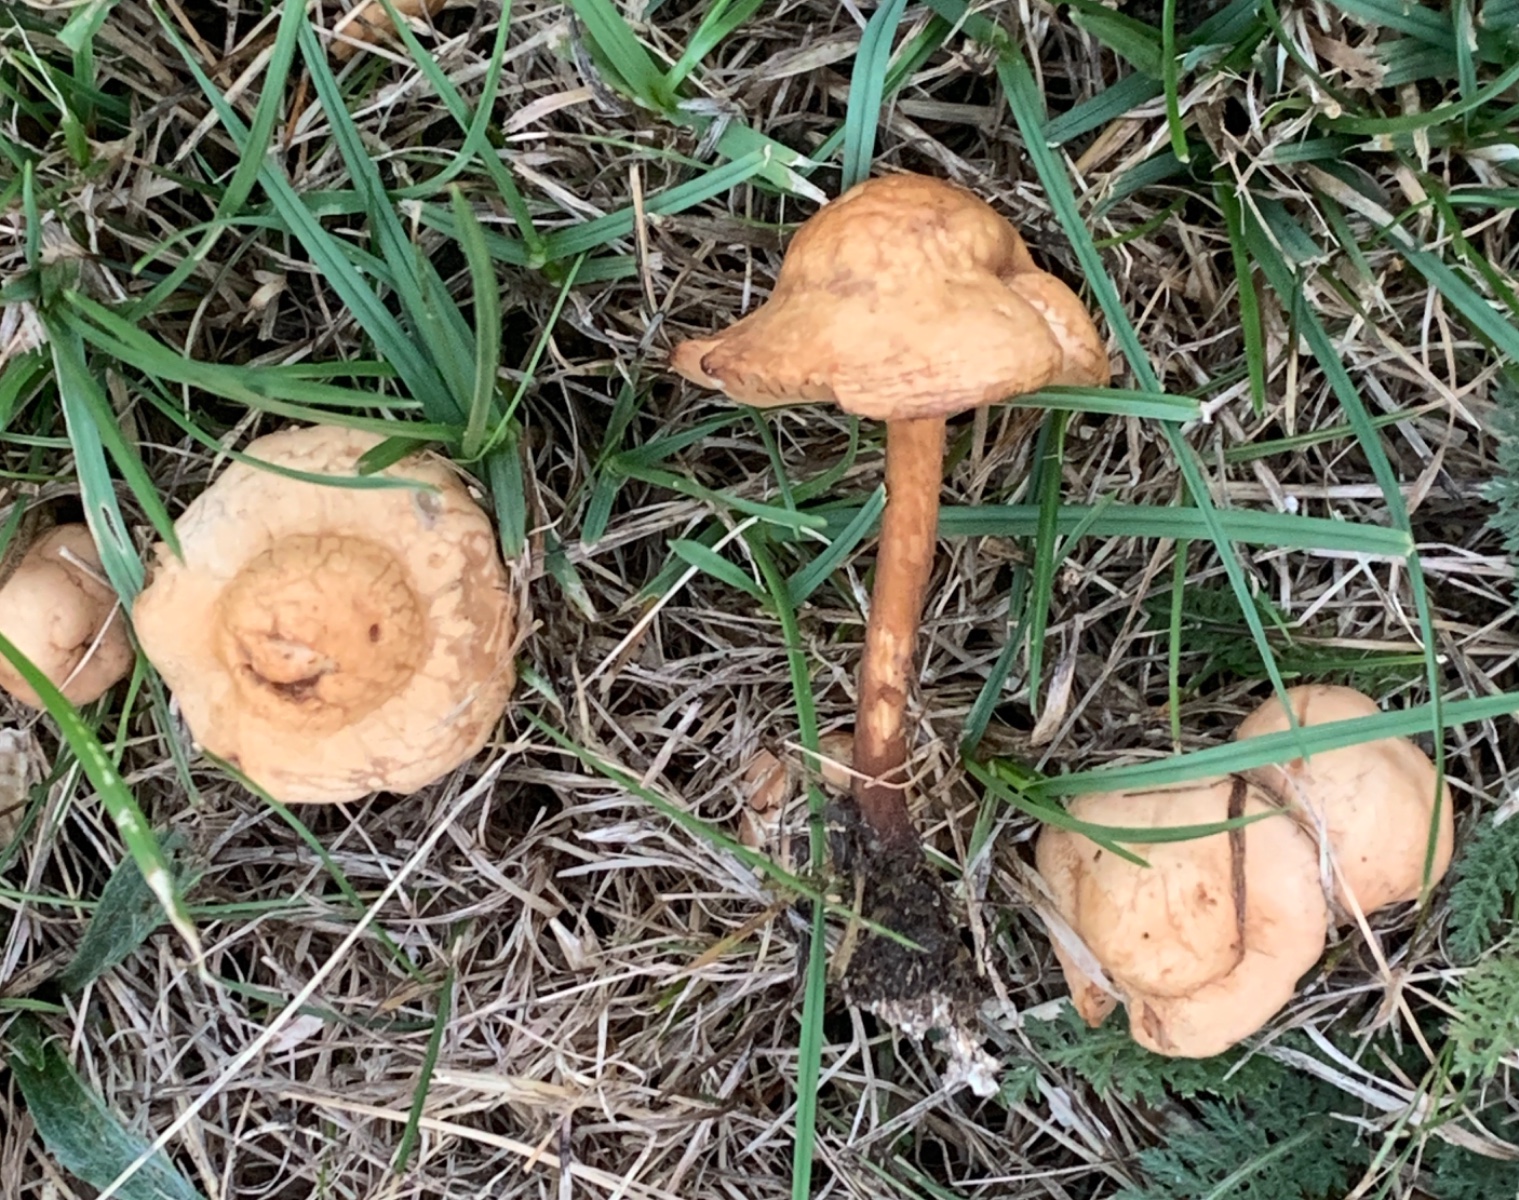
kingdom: Fungi
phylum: Basidiomycota
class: Agaricomycetes
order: Agaricales
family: Marasmiaceae
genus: Marasmius
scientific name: Marasmius oreades
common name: elledans-bruskhat
